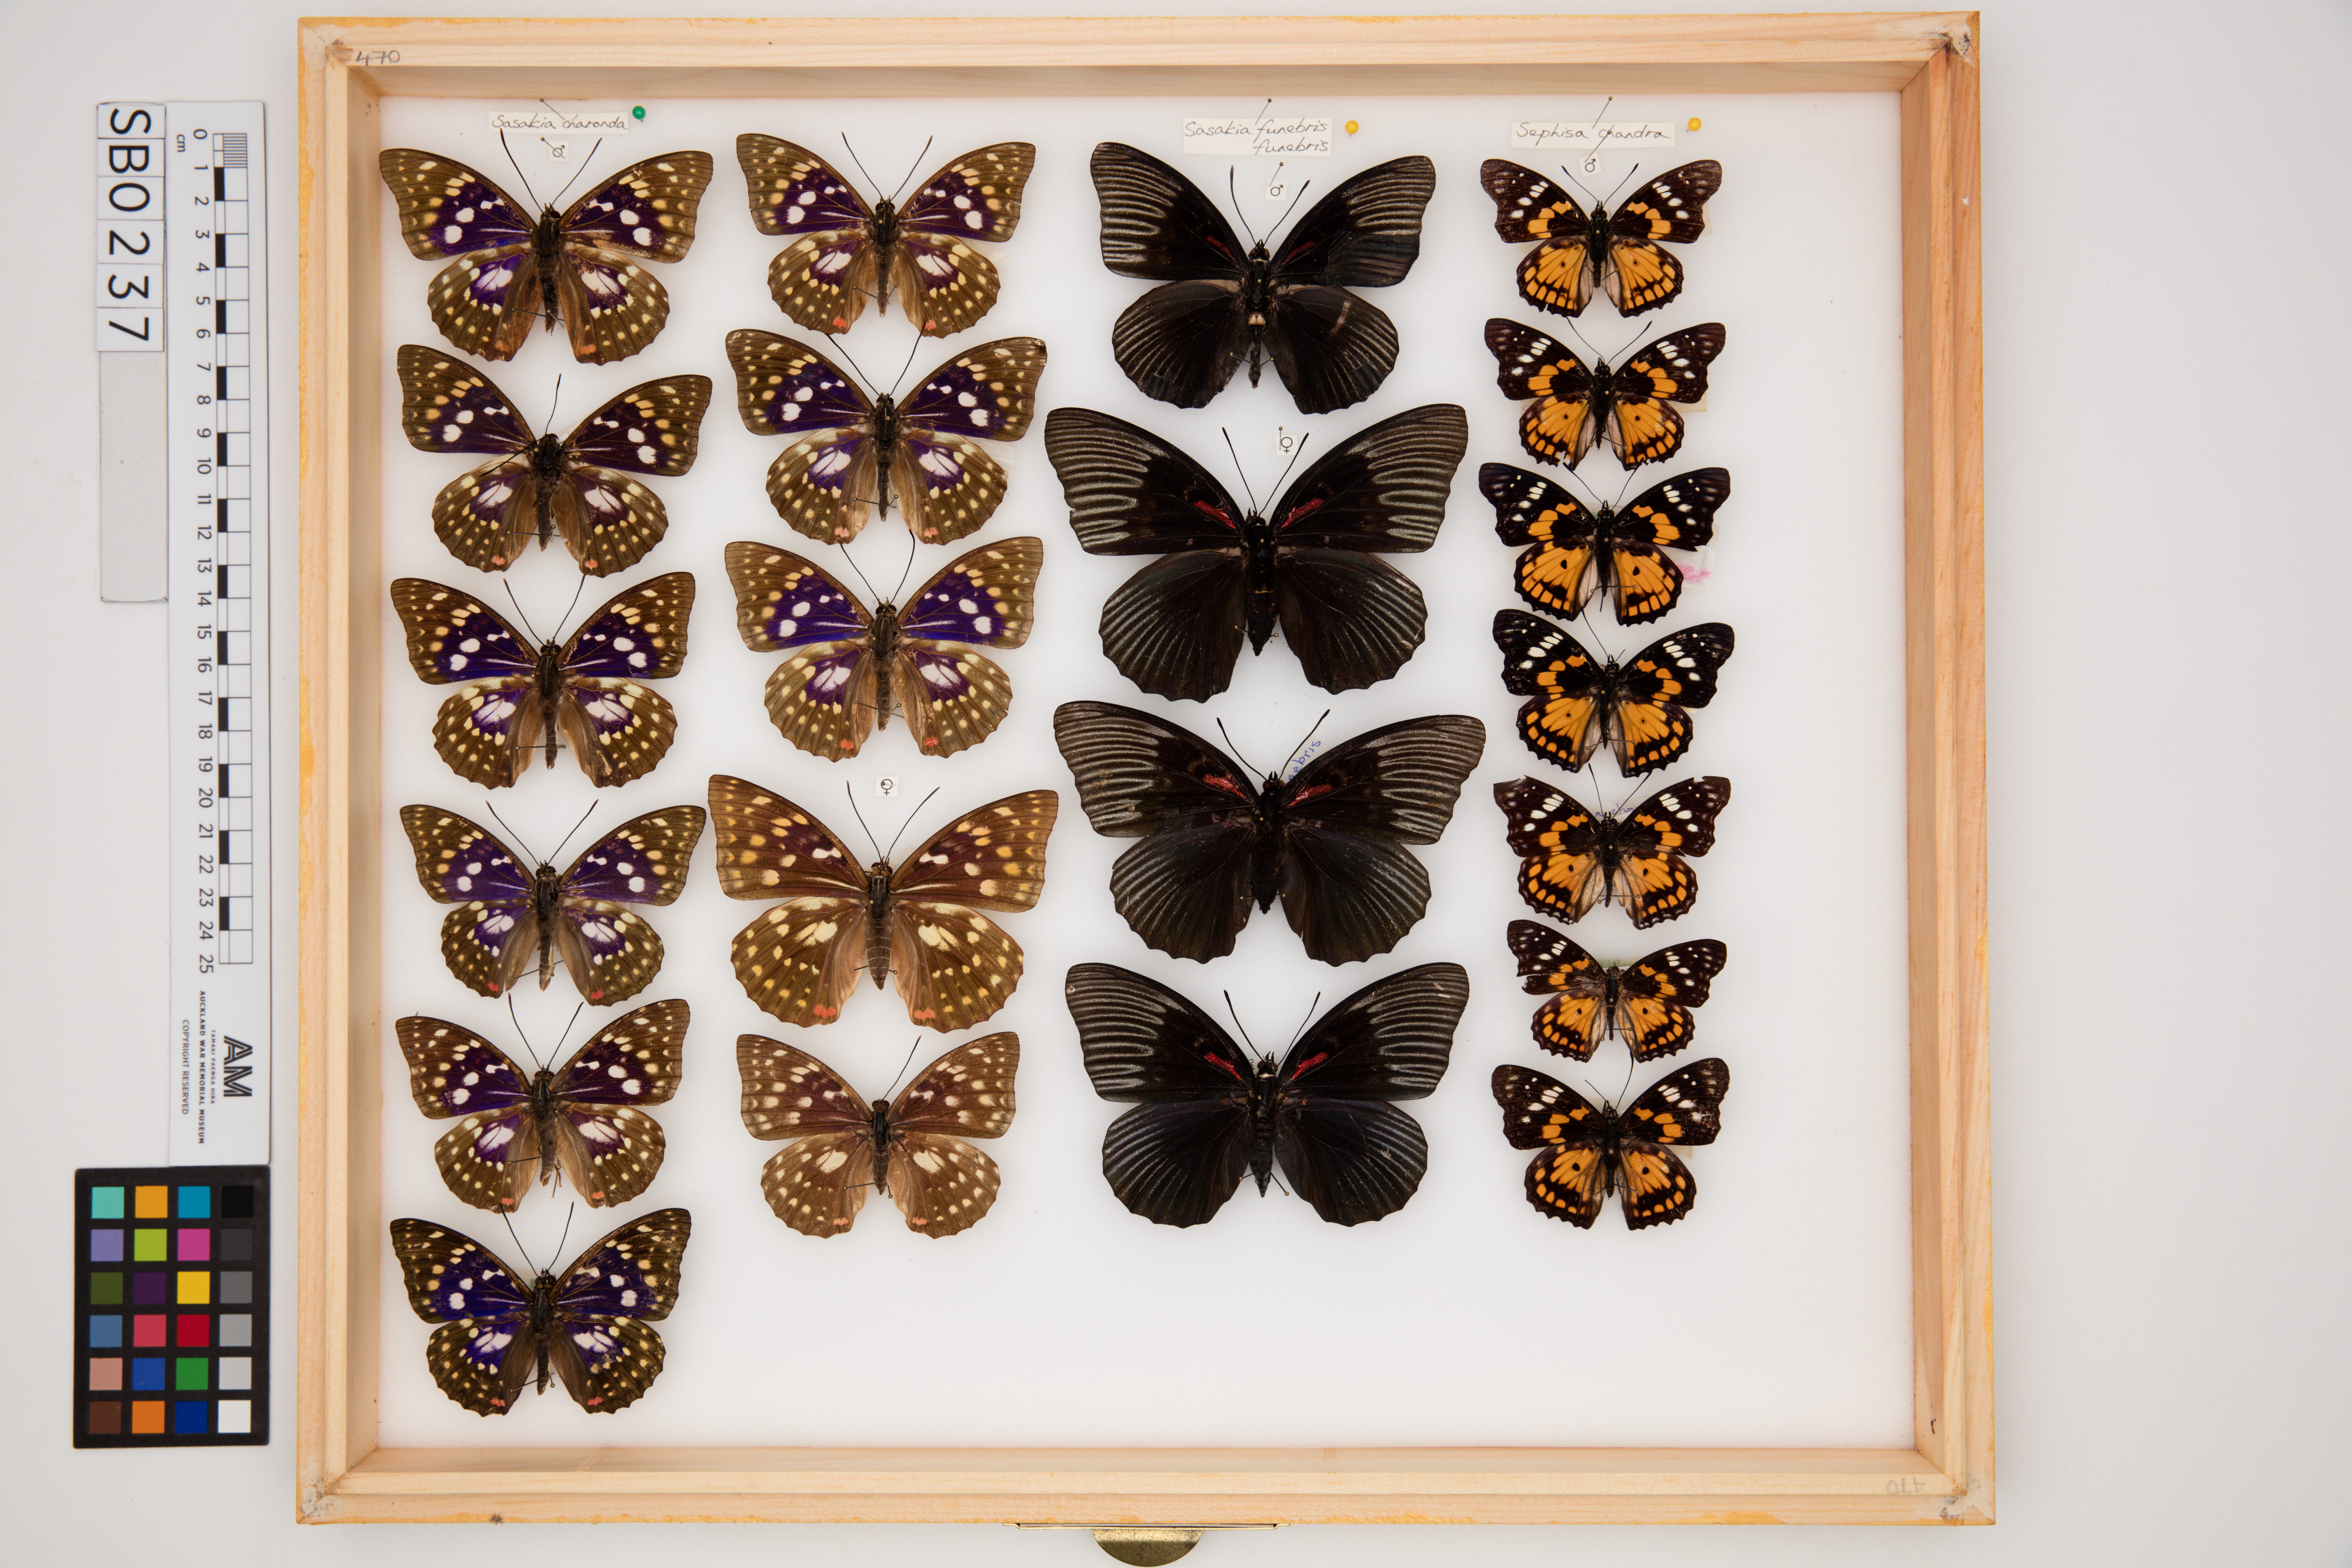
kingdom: Animalia
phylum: Arthropoda
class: Insecta
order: Lepidoptera
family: Nymphalidae
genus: Sephisa
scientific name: Sephisa chandra
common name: Eastern courtier
